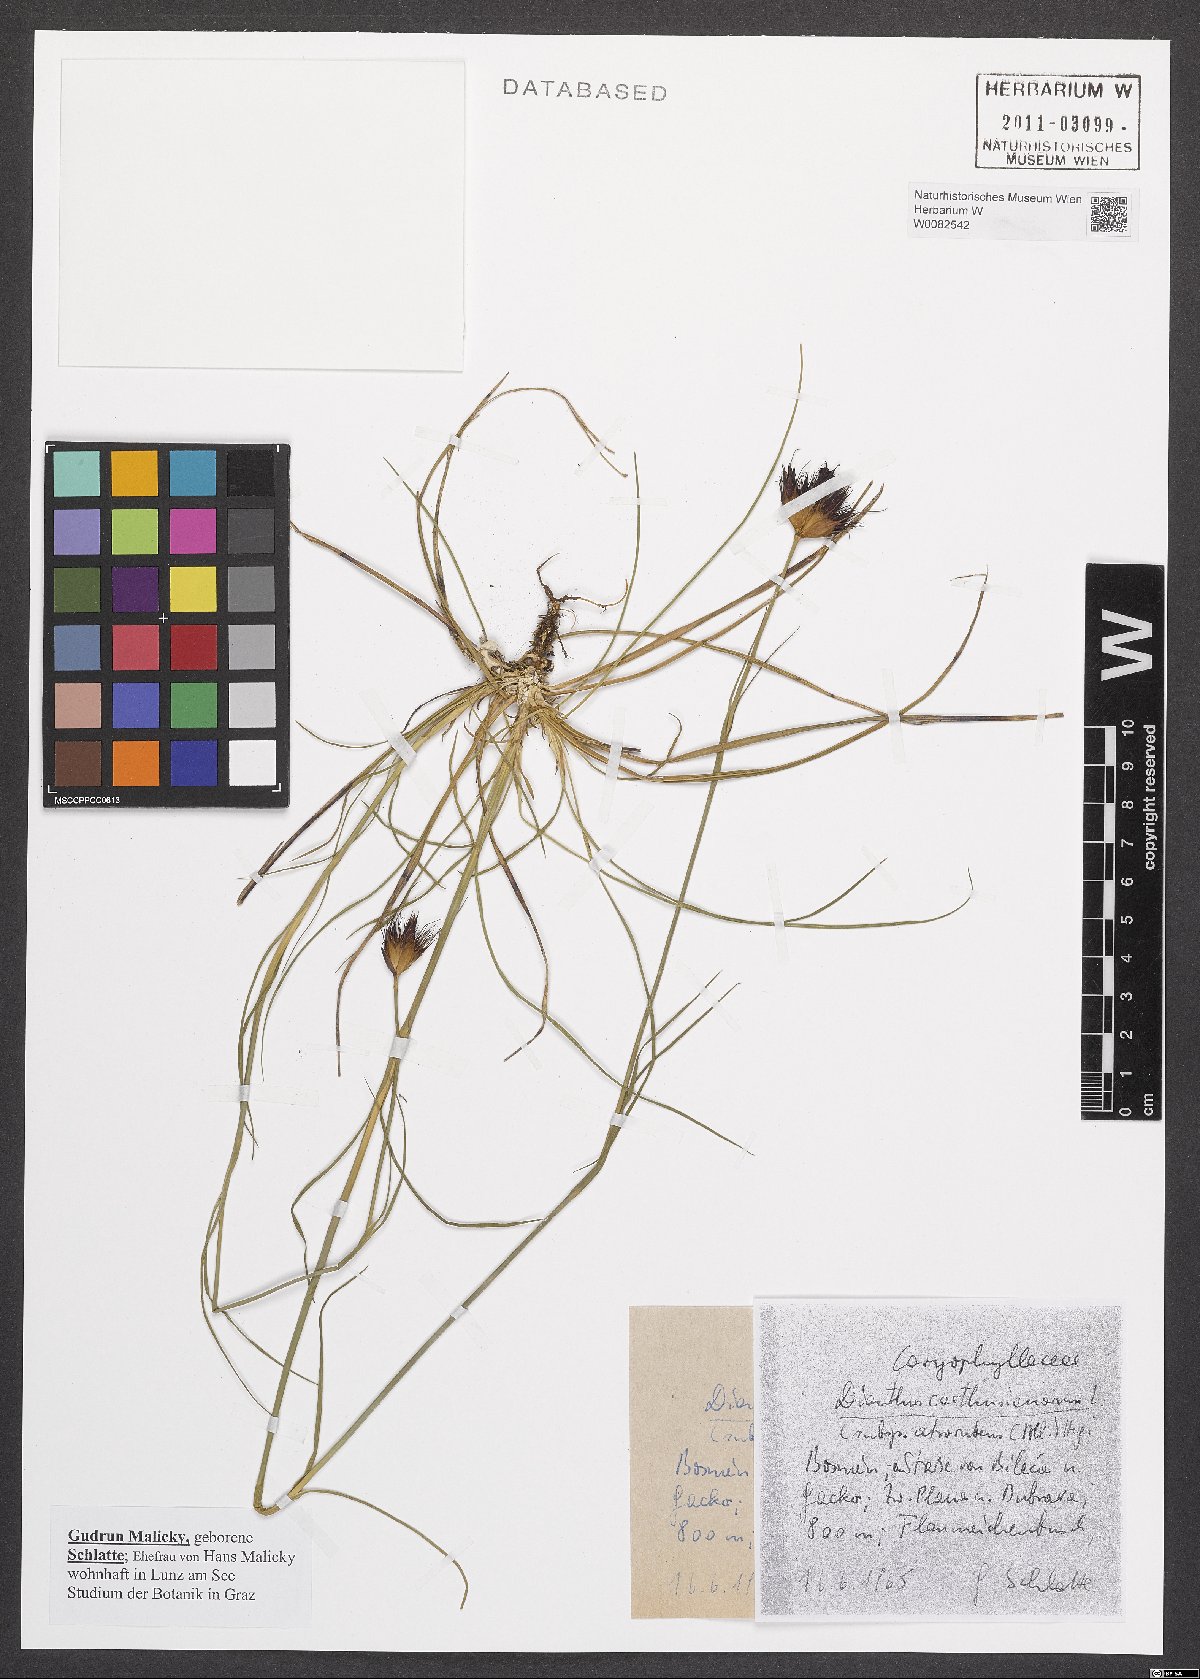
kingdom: Plantae
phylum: Tracheophyta
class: Magnoliopsida
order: Caryophyllales
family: Caryophyllaceae
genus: Dianthus
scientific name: Dianthus carthusianorum
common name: Carthusian pink
